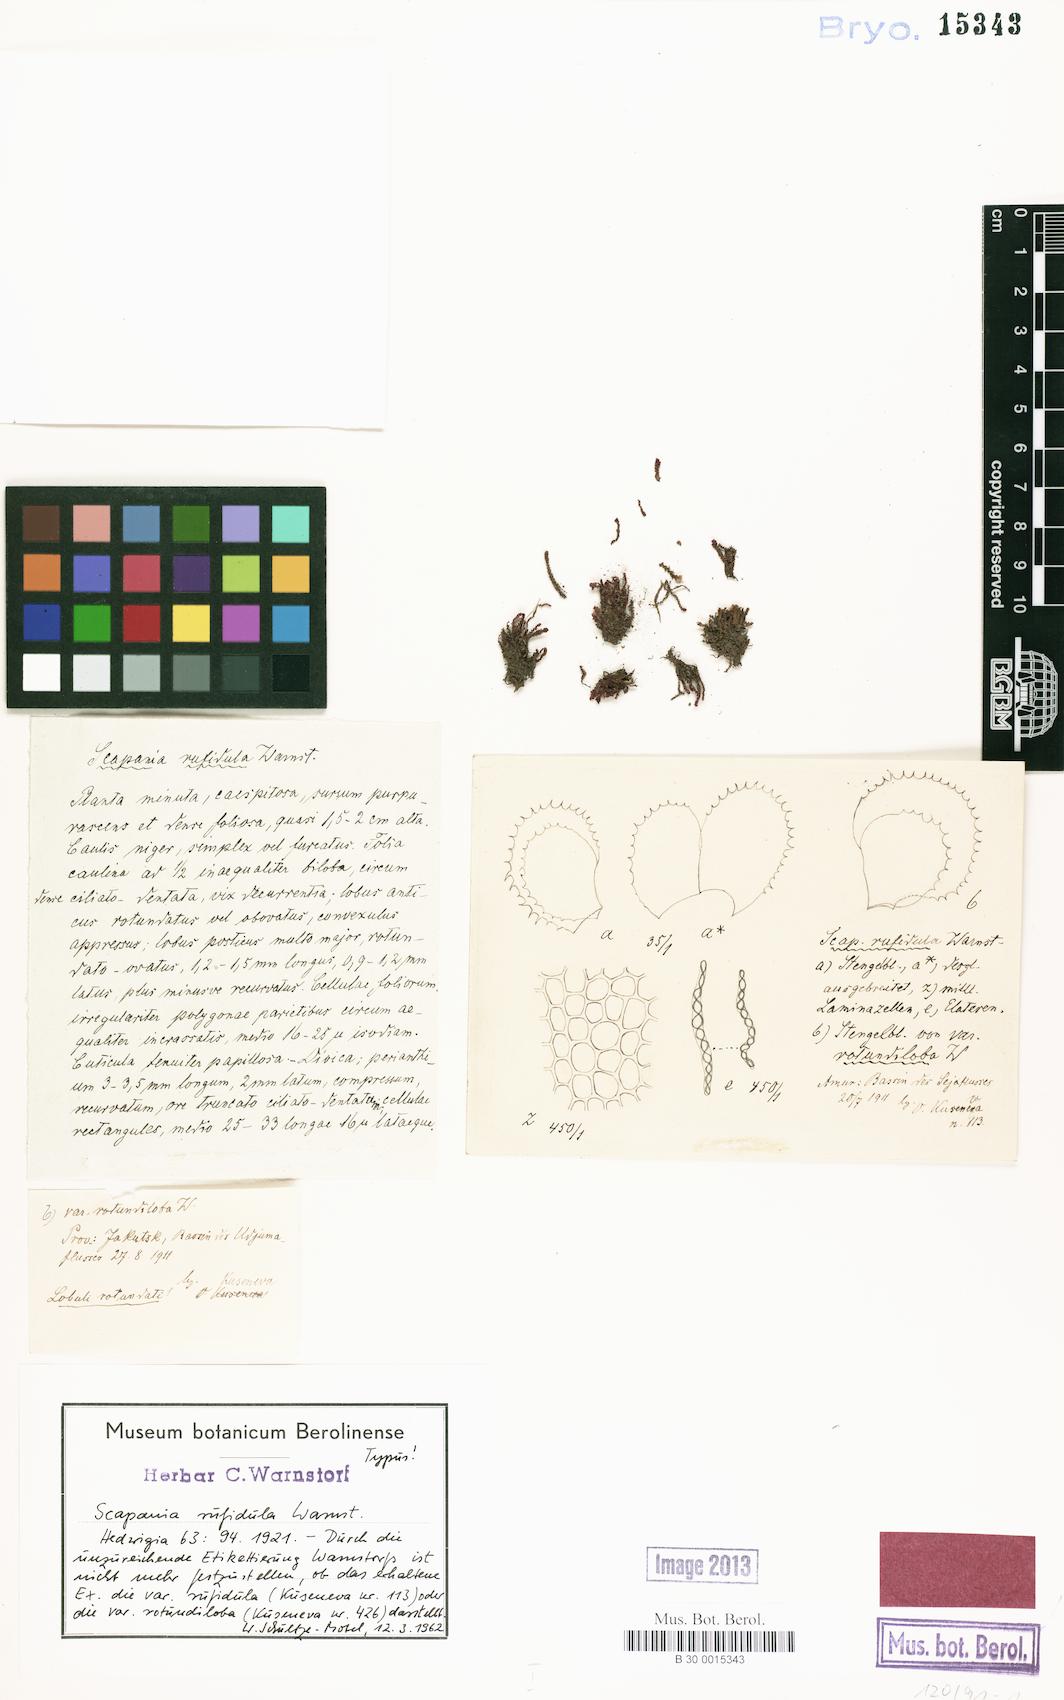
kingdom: Plantae
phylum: Marchantiophyta
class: Jungermanniopsida
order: Jungermanniales
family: Scapaniaceae
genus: Scapania
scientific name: Scapania rufidula
